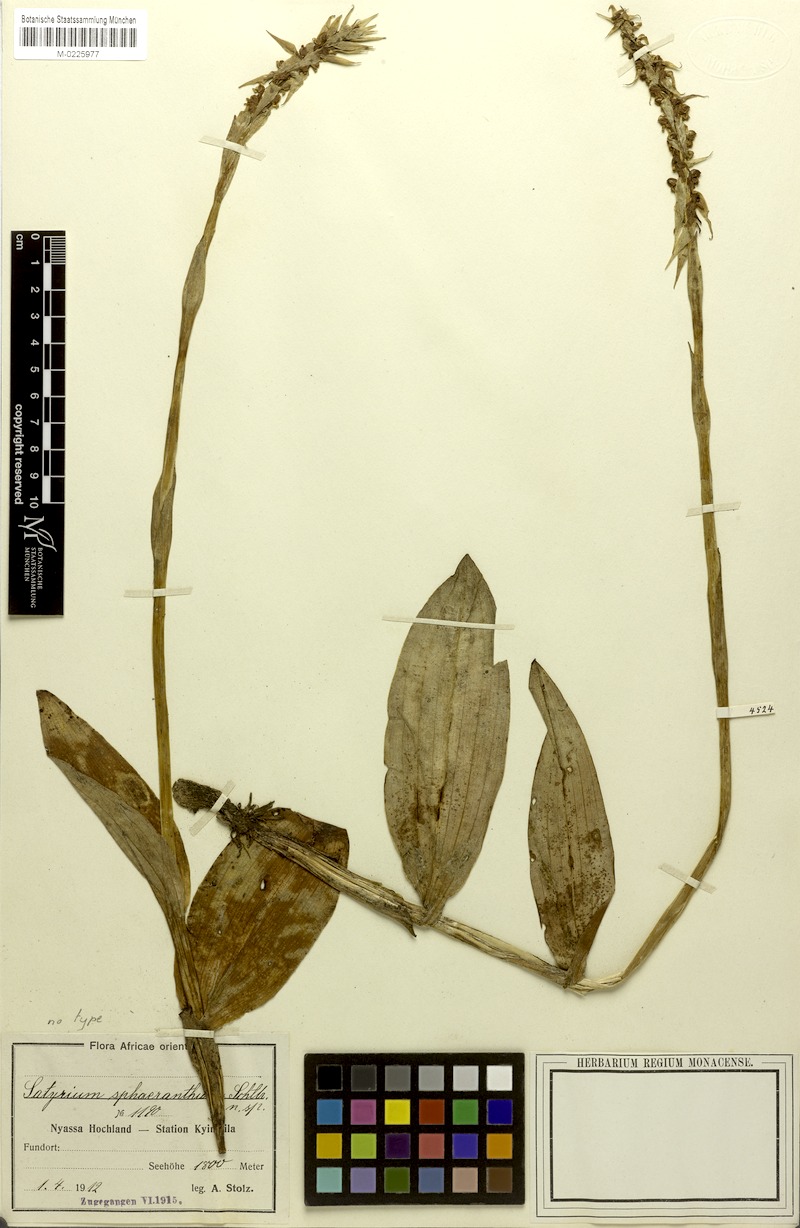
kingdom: Plantae
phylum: Tracheophyta
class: Liliopsida
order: Asparagales
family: Orchidaceae
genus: Satyrium
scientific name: Satyrium sphaeranthum
